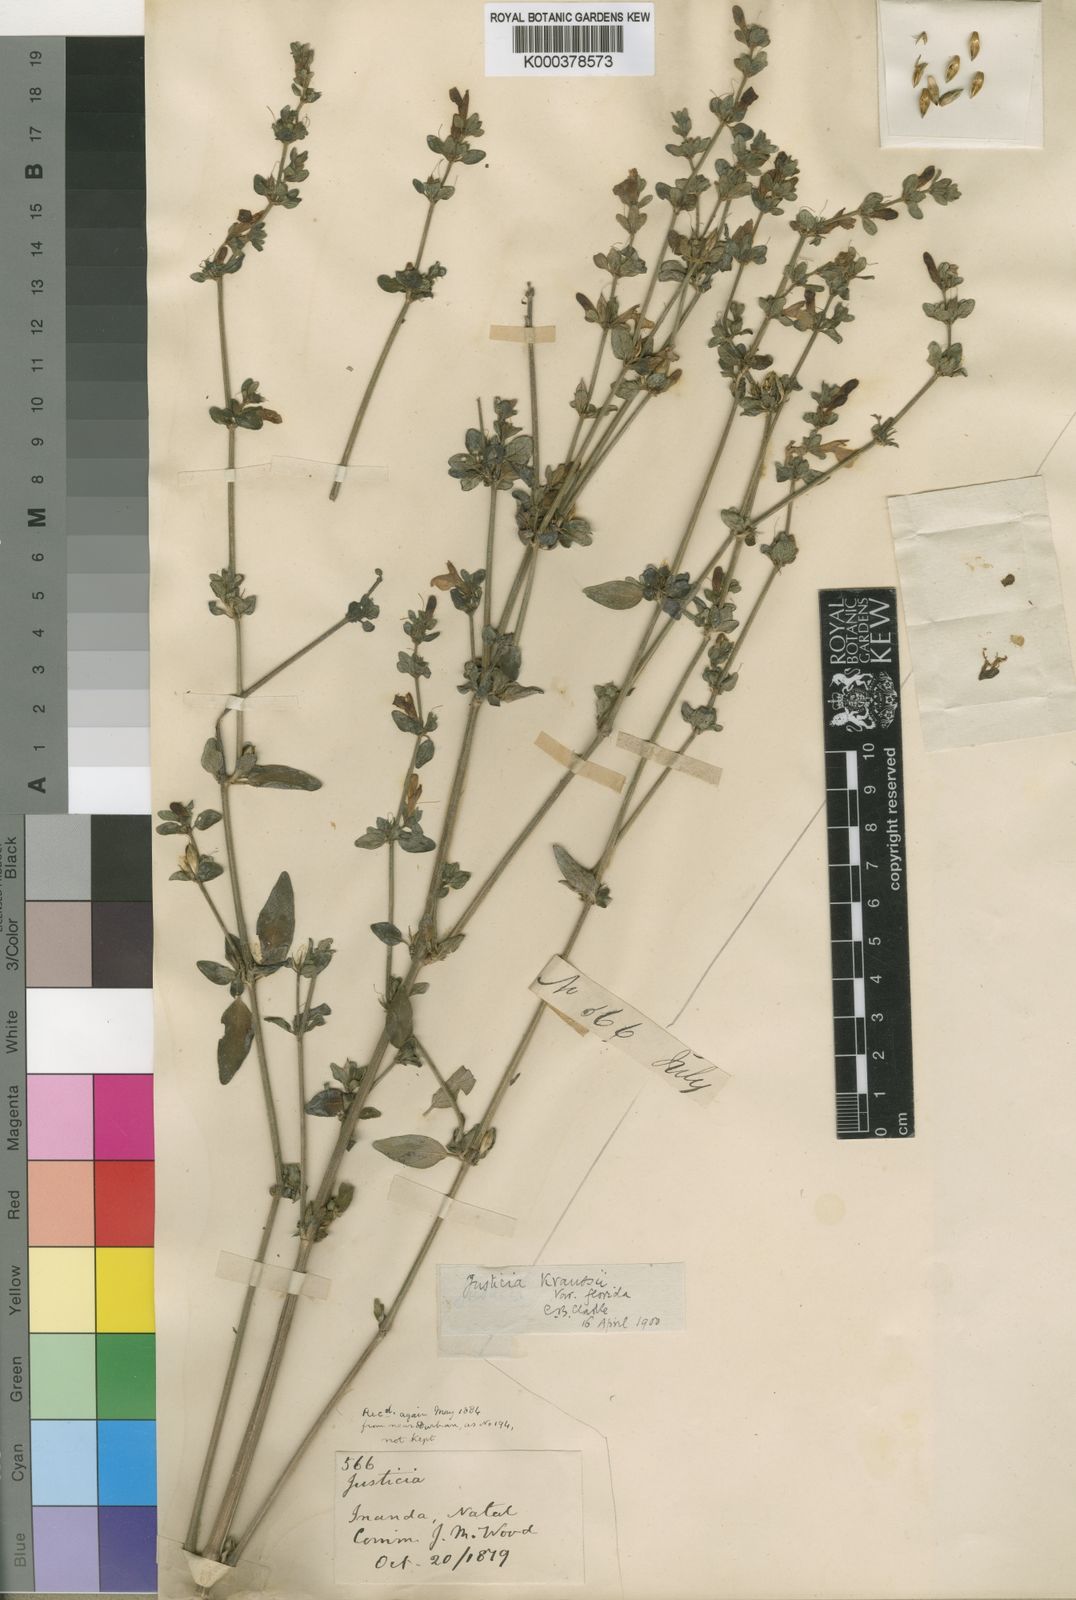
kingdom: Plantae
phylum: Tracheophyta
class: Magnoliopsida
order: Lamiales
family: Acanthaceae
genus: Justicia
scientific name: Justicia protracta
